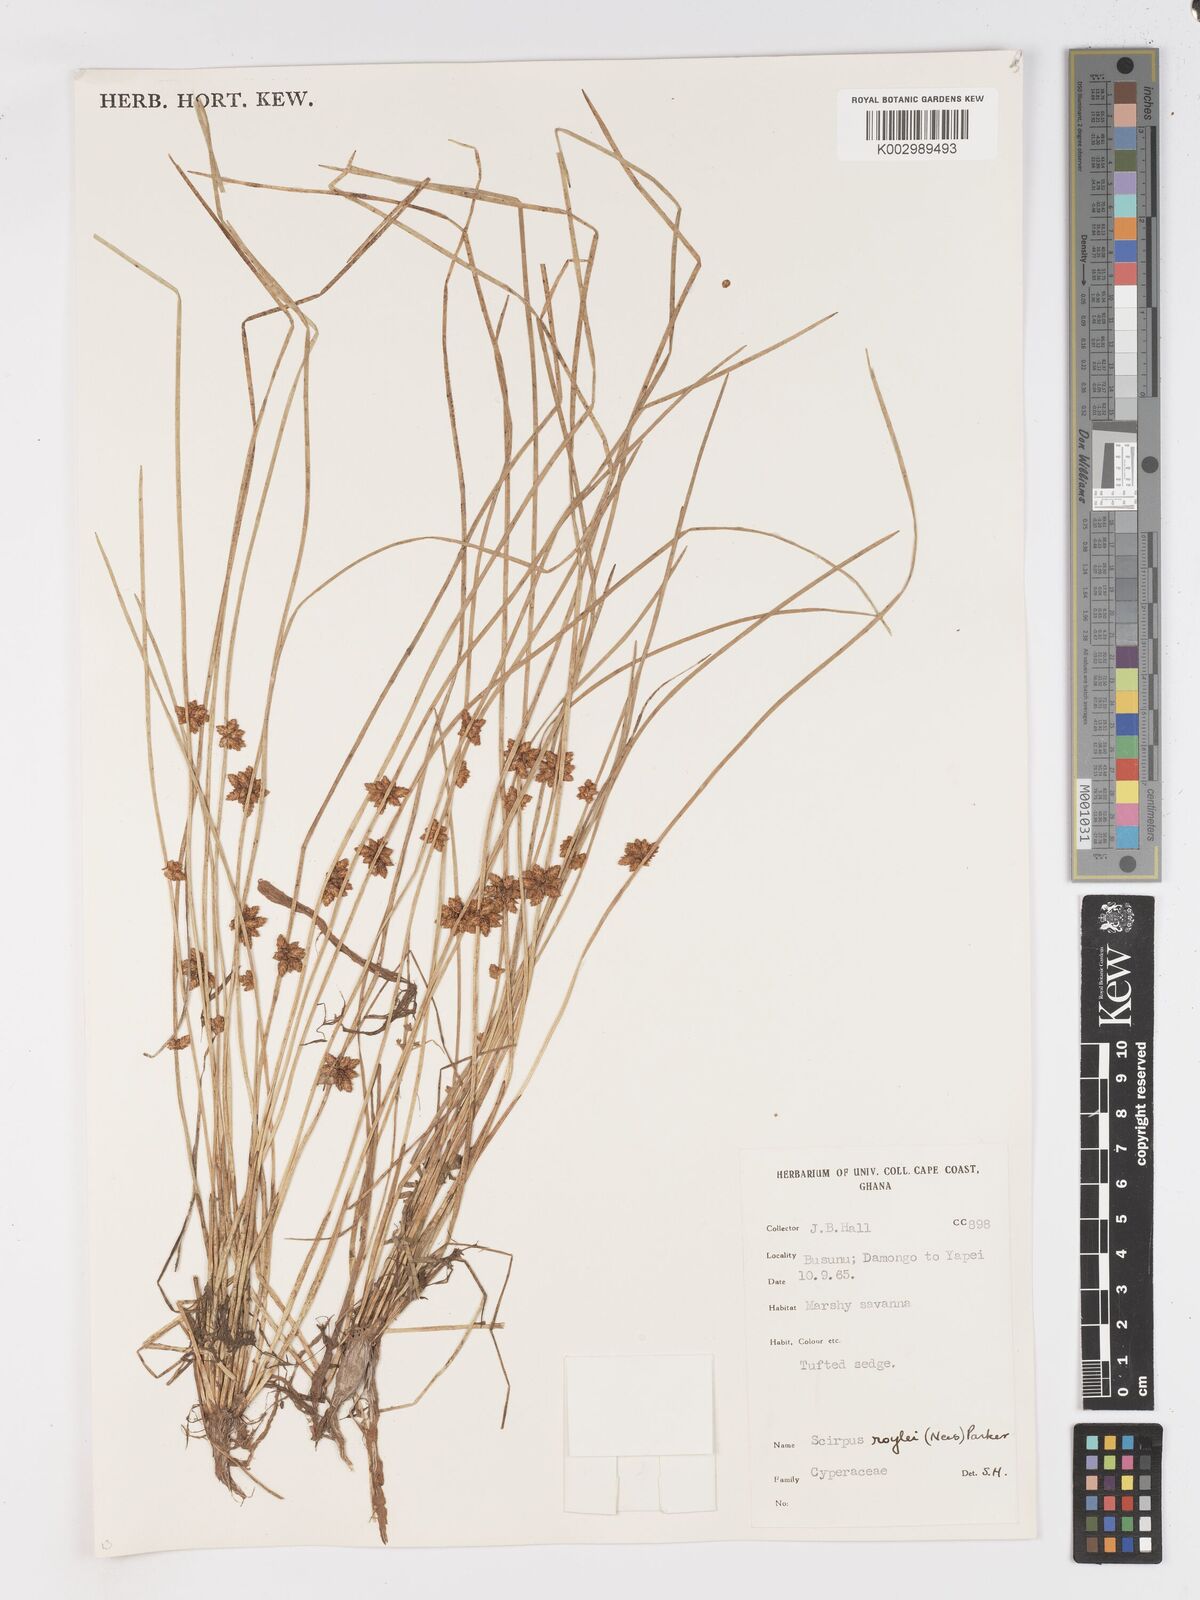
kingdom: Plantae
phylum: Tracheophyta
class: Liliopsida
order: Poales
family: Cyperaceae
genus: Schoenoplectiella
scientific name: Schoenoplectiella roylei
